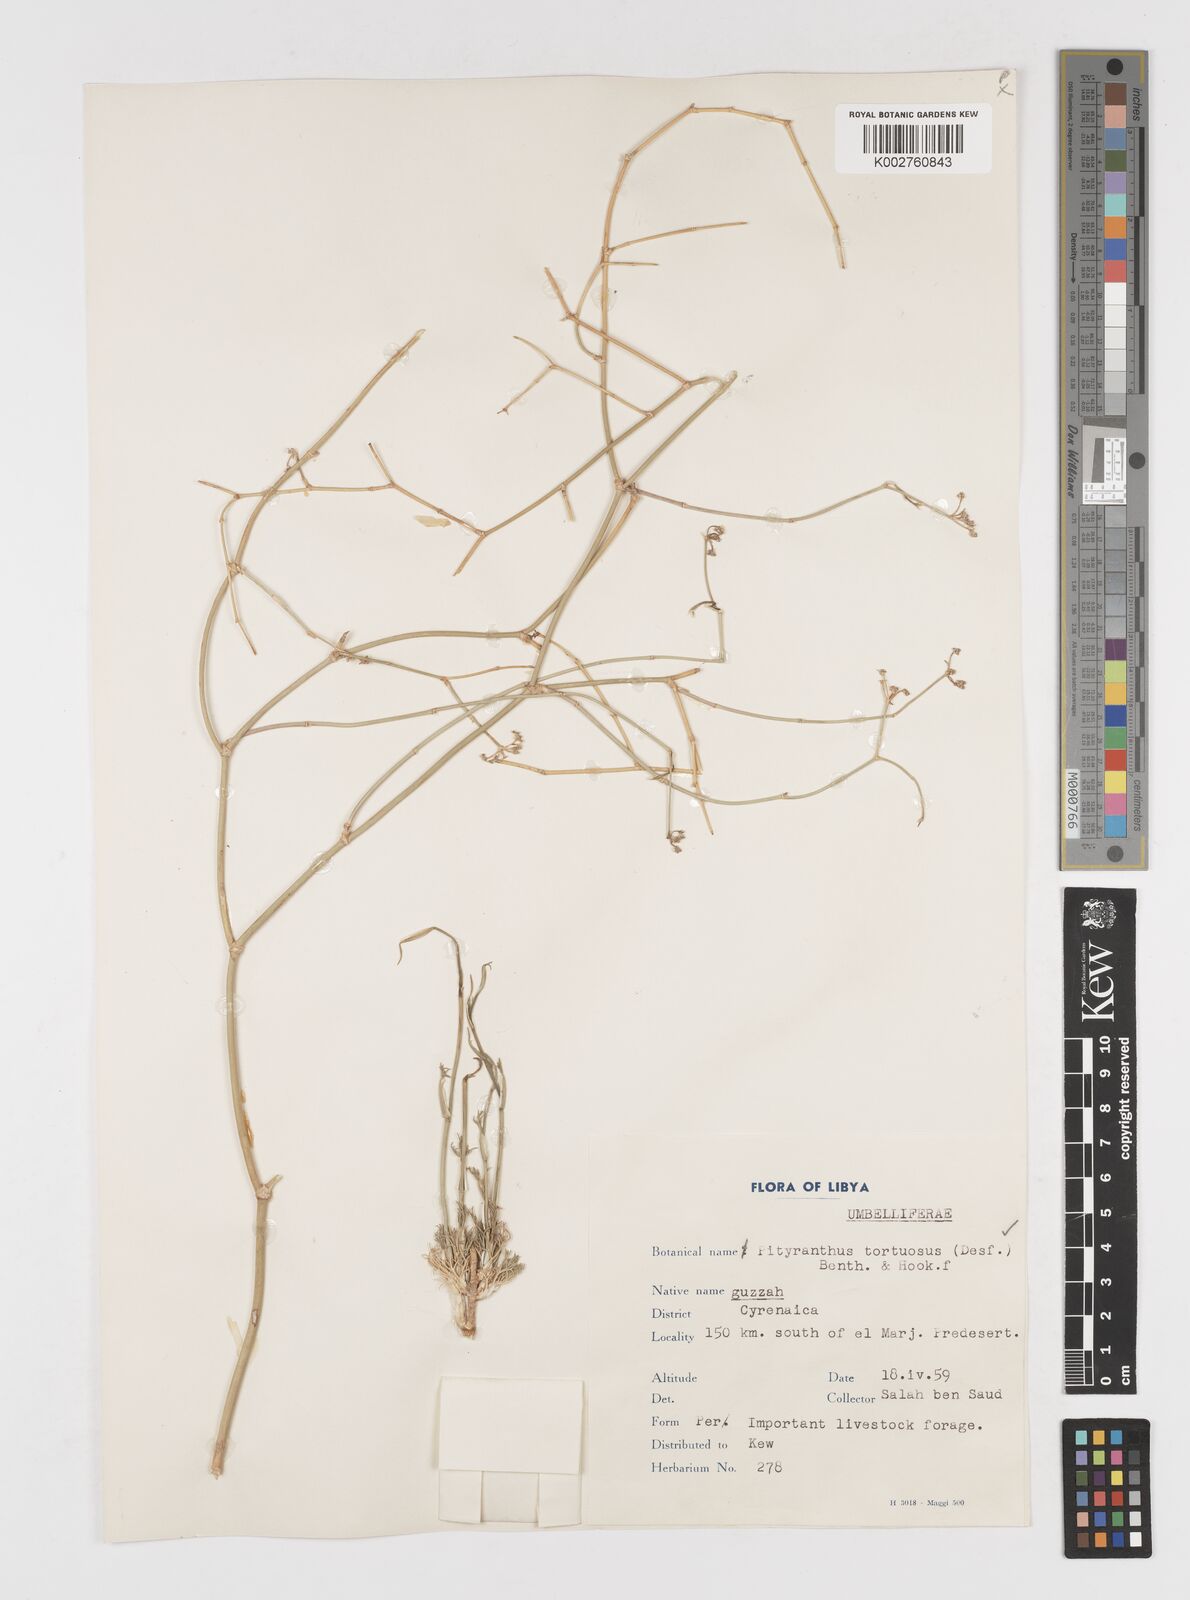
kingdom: Plantae
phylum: Tracheophyta
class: Magnoliopsida
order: Apiales
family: Apiaceae
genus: Deverra
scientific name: Deverra tortuosa
